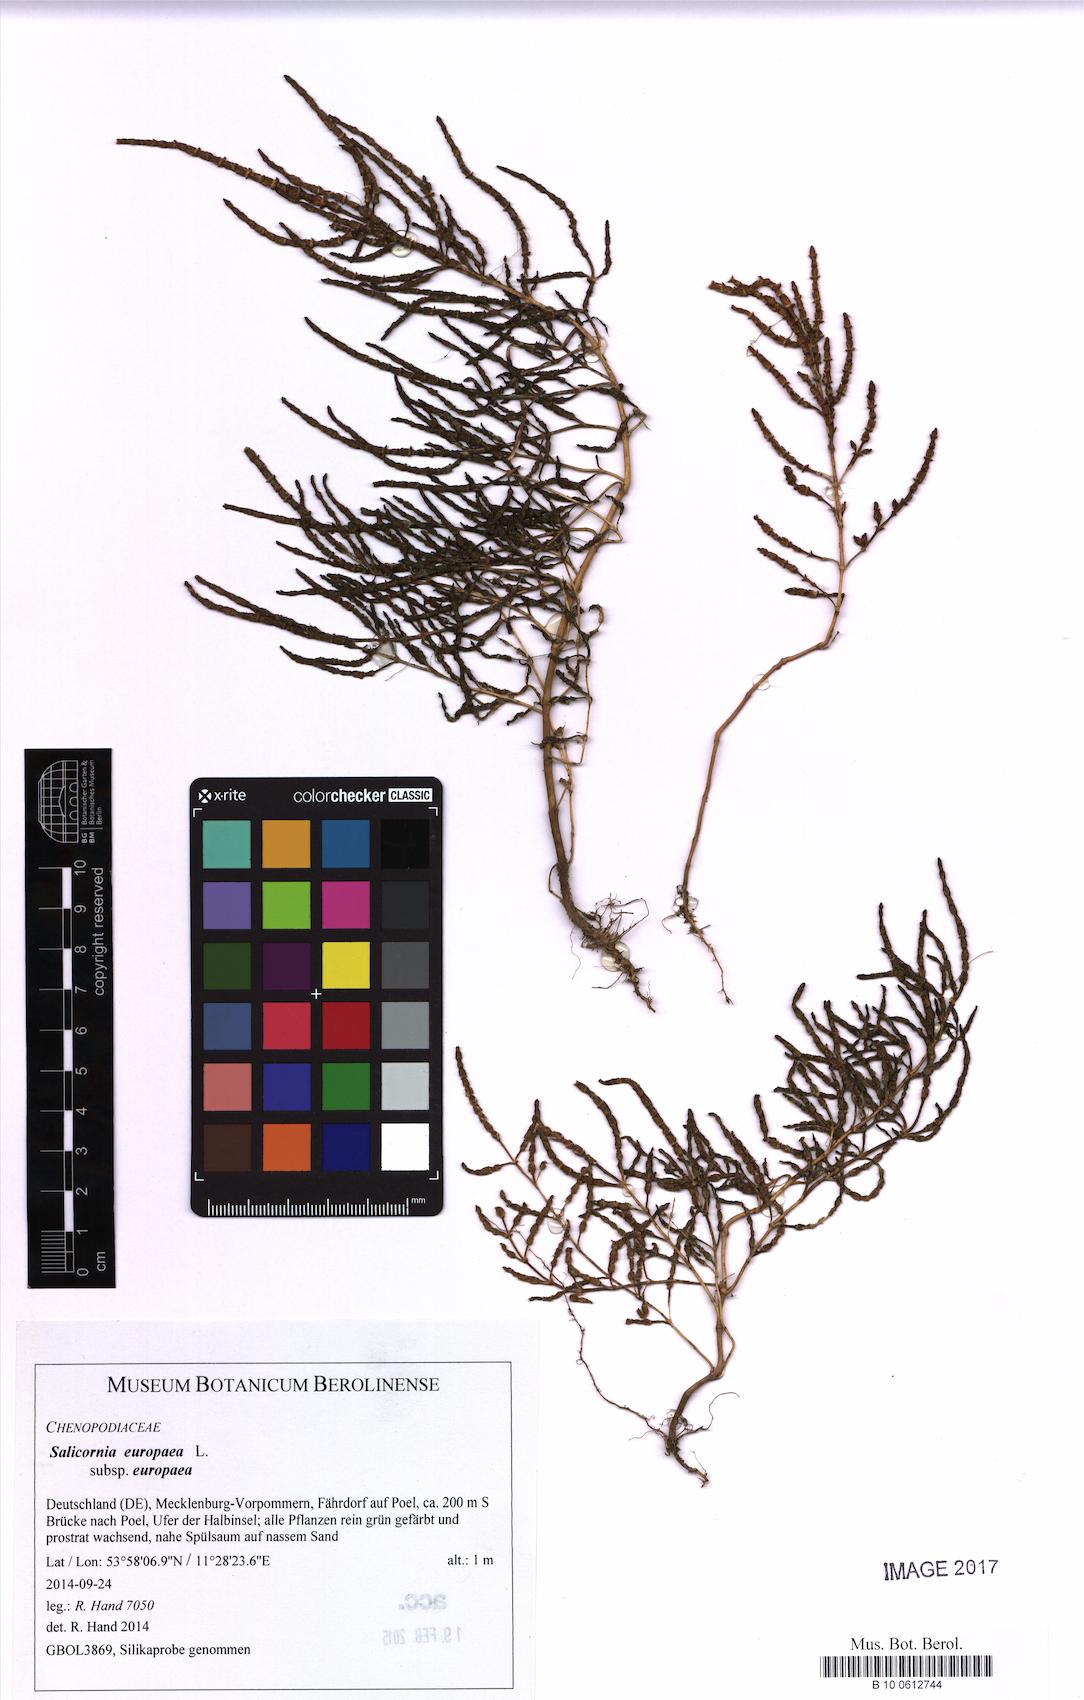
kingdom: Plantae
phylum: Tracheophyta
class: Magnoliopsida
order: Caryophyllales
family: Amaranthaceae
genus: Salicornia
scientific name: Salicornia europaea
